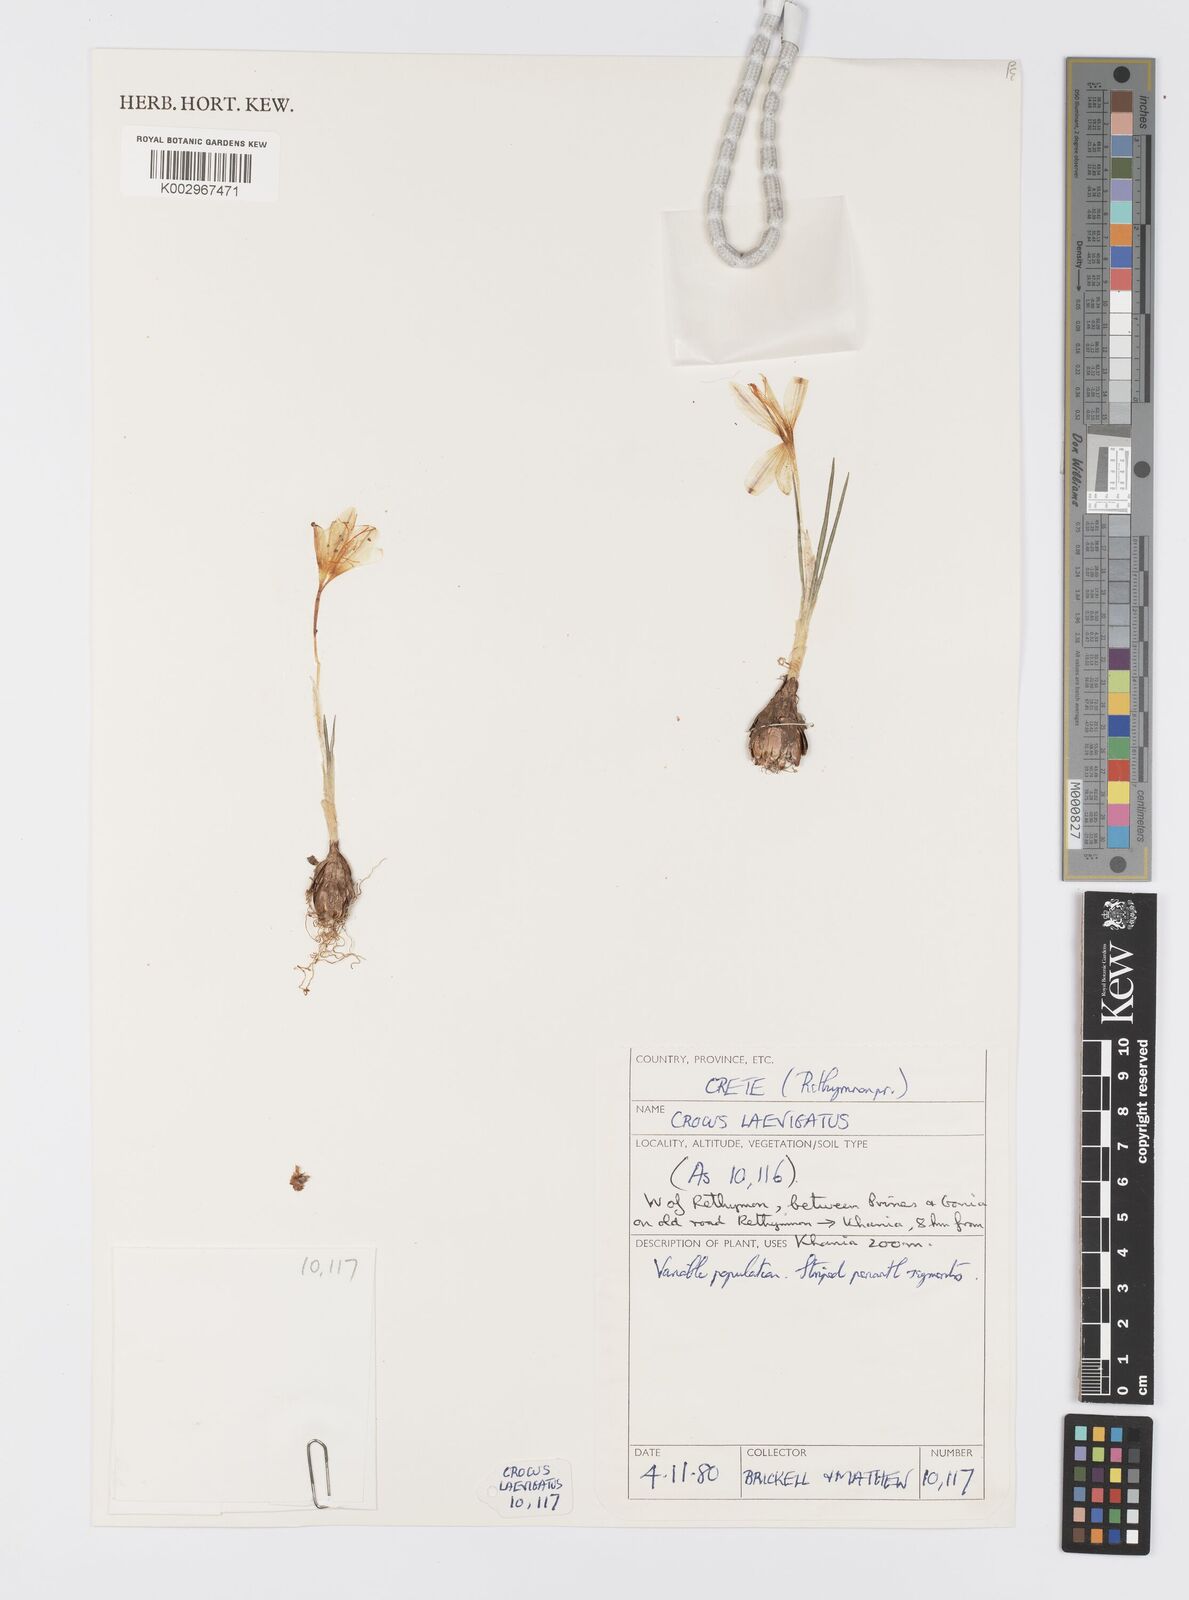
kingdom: Plantae
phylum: Tracheophyta
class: Liliopsida
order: Asparagales
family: Iridaceae
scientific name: Iridaceae
